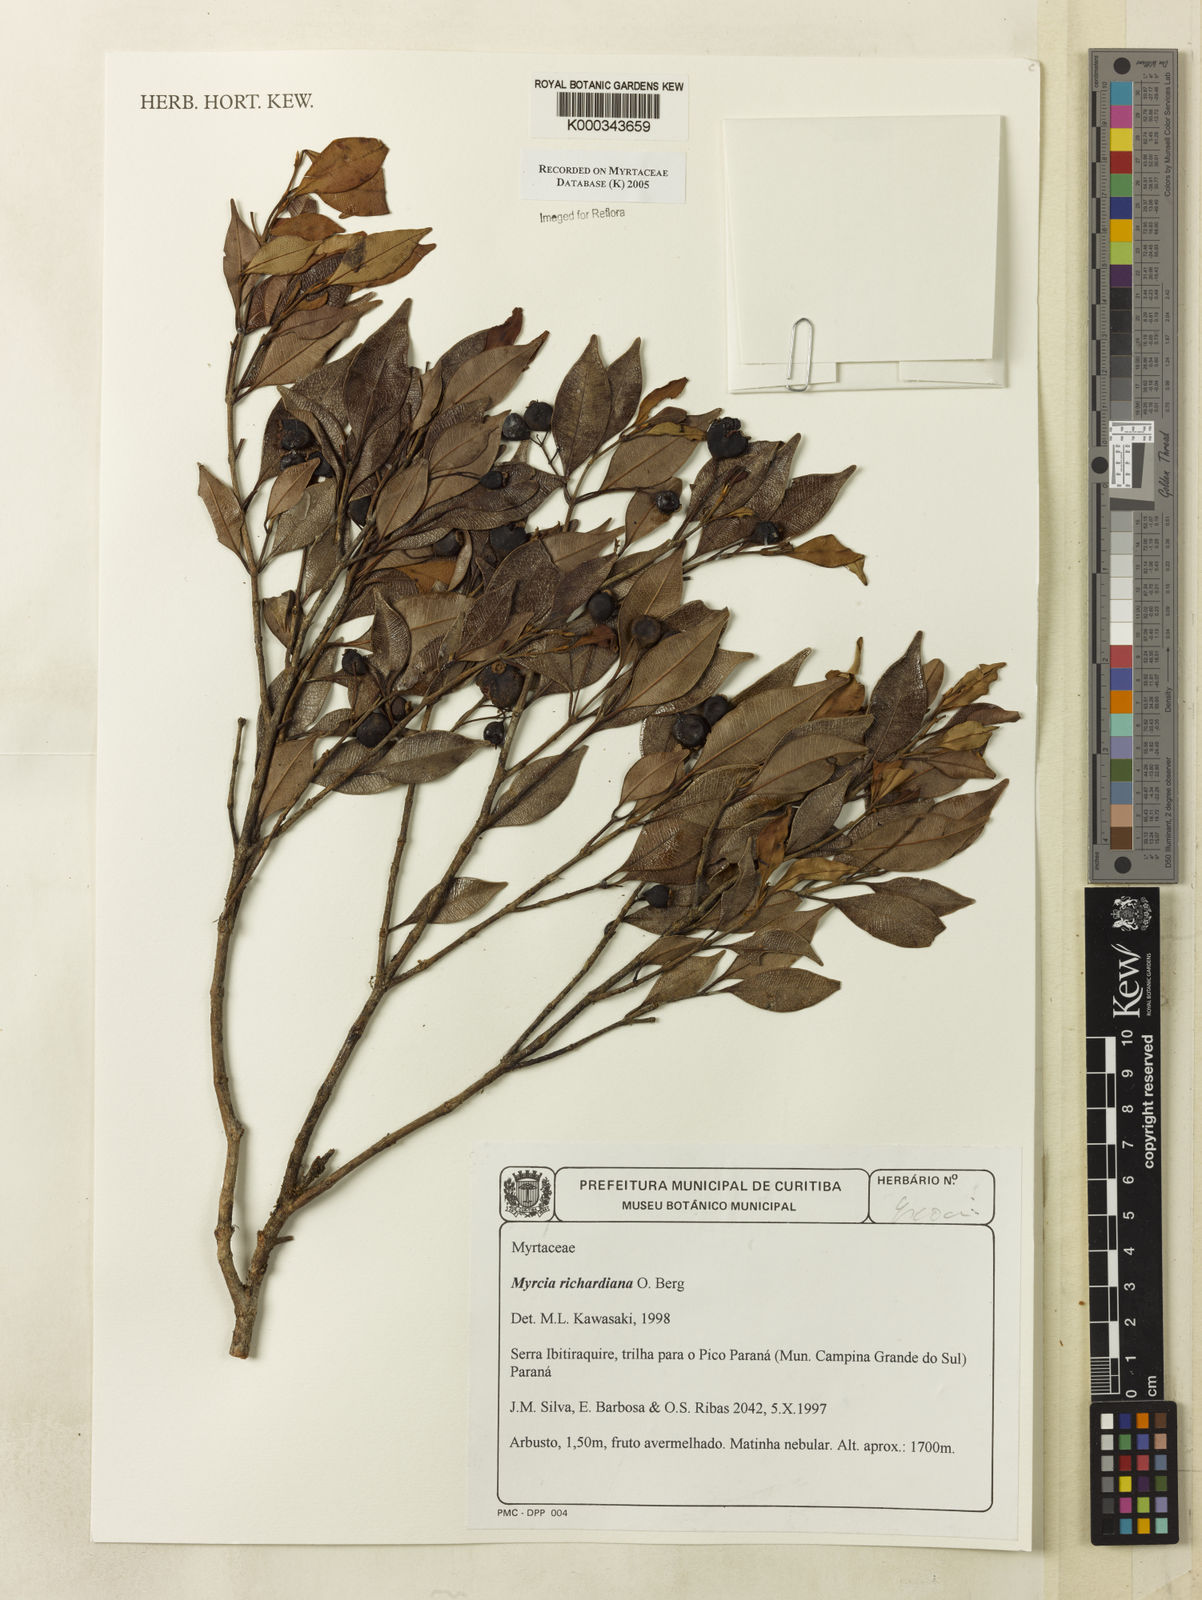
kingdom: Plantae
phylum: Tracheophyta
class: Magnoliopsida
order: Myrtales
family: Myrtaceae
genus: Myrcia
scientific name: Myrcia richardiana
